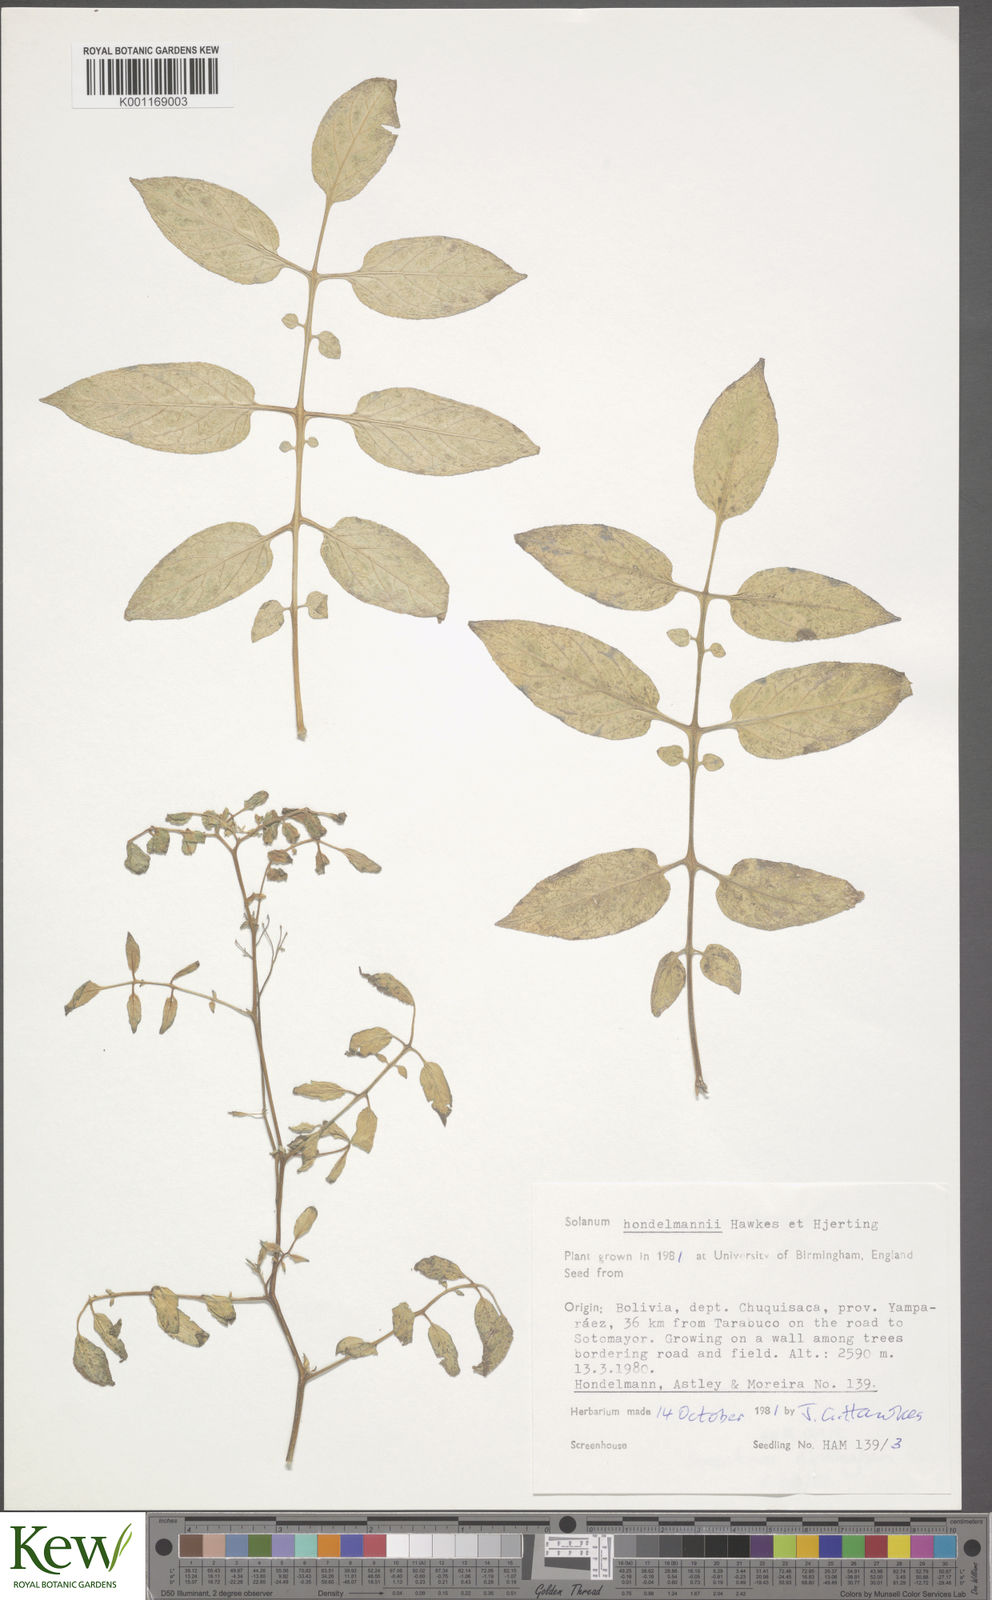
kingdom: Plantae
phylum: Tracheophyta
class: Magnoliopsida
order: Solanales
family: Solanaceae
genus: Solanum
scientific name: Solanum brevicaule
